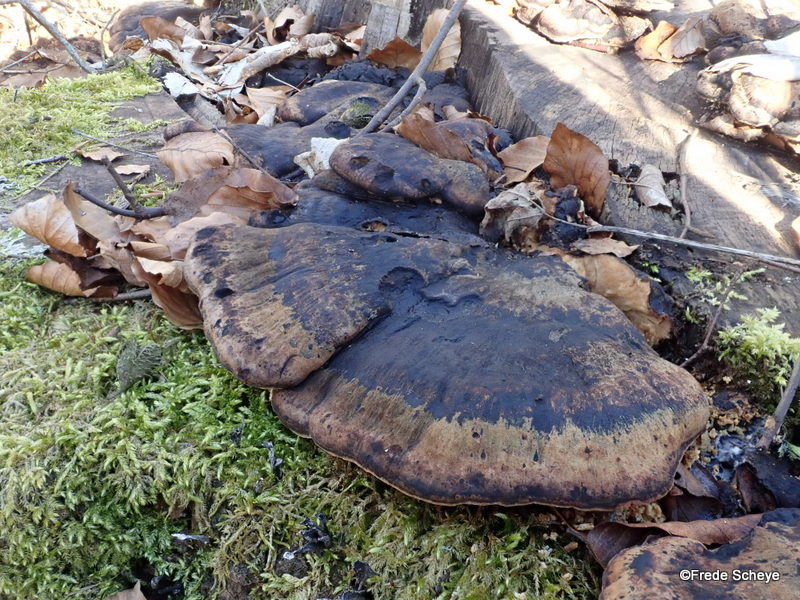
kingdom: Fungi
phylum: Basidiomycota
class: Agaricomycetes
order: Polyporales
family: Ischnodermataceae
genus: Ischnoderma
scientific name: Ischnoderma resinosum
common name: løv-tjæreporesvamp
